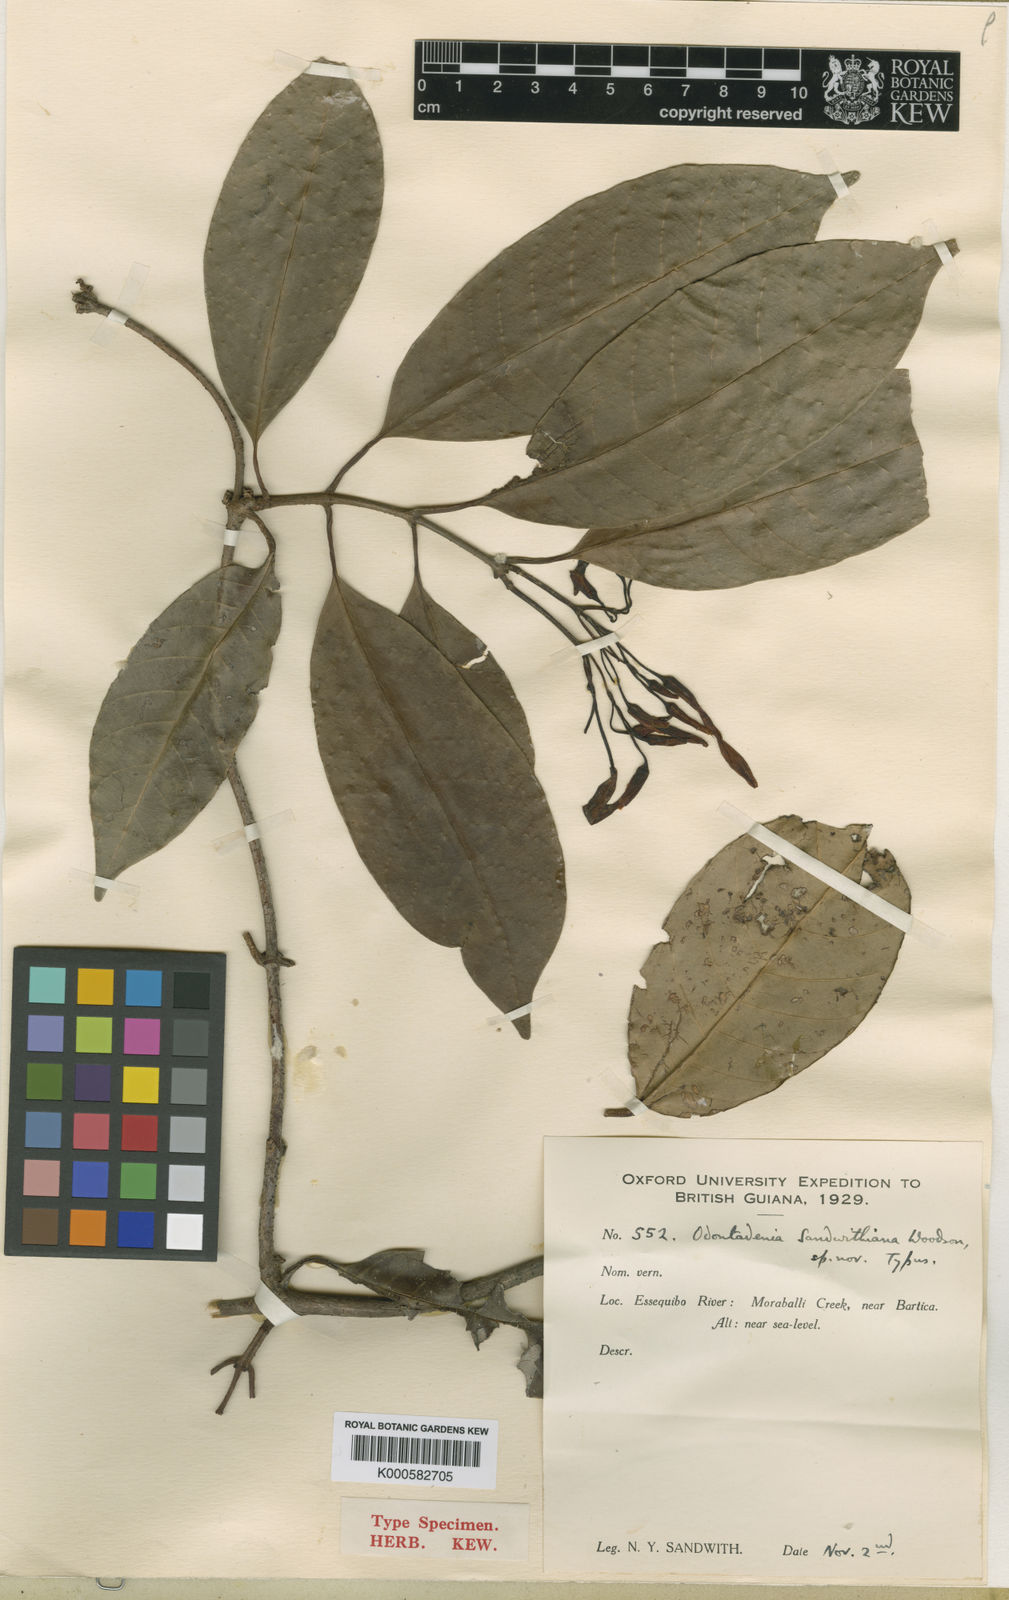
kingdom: Plantae
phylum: Tracheophyta
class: Magnoliopsida
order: Gentianales
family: Apocynaceae
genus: Odontadenia
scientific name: Odontadenia kochii
